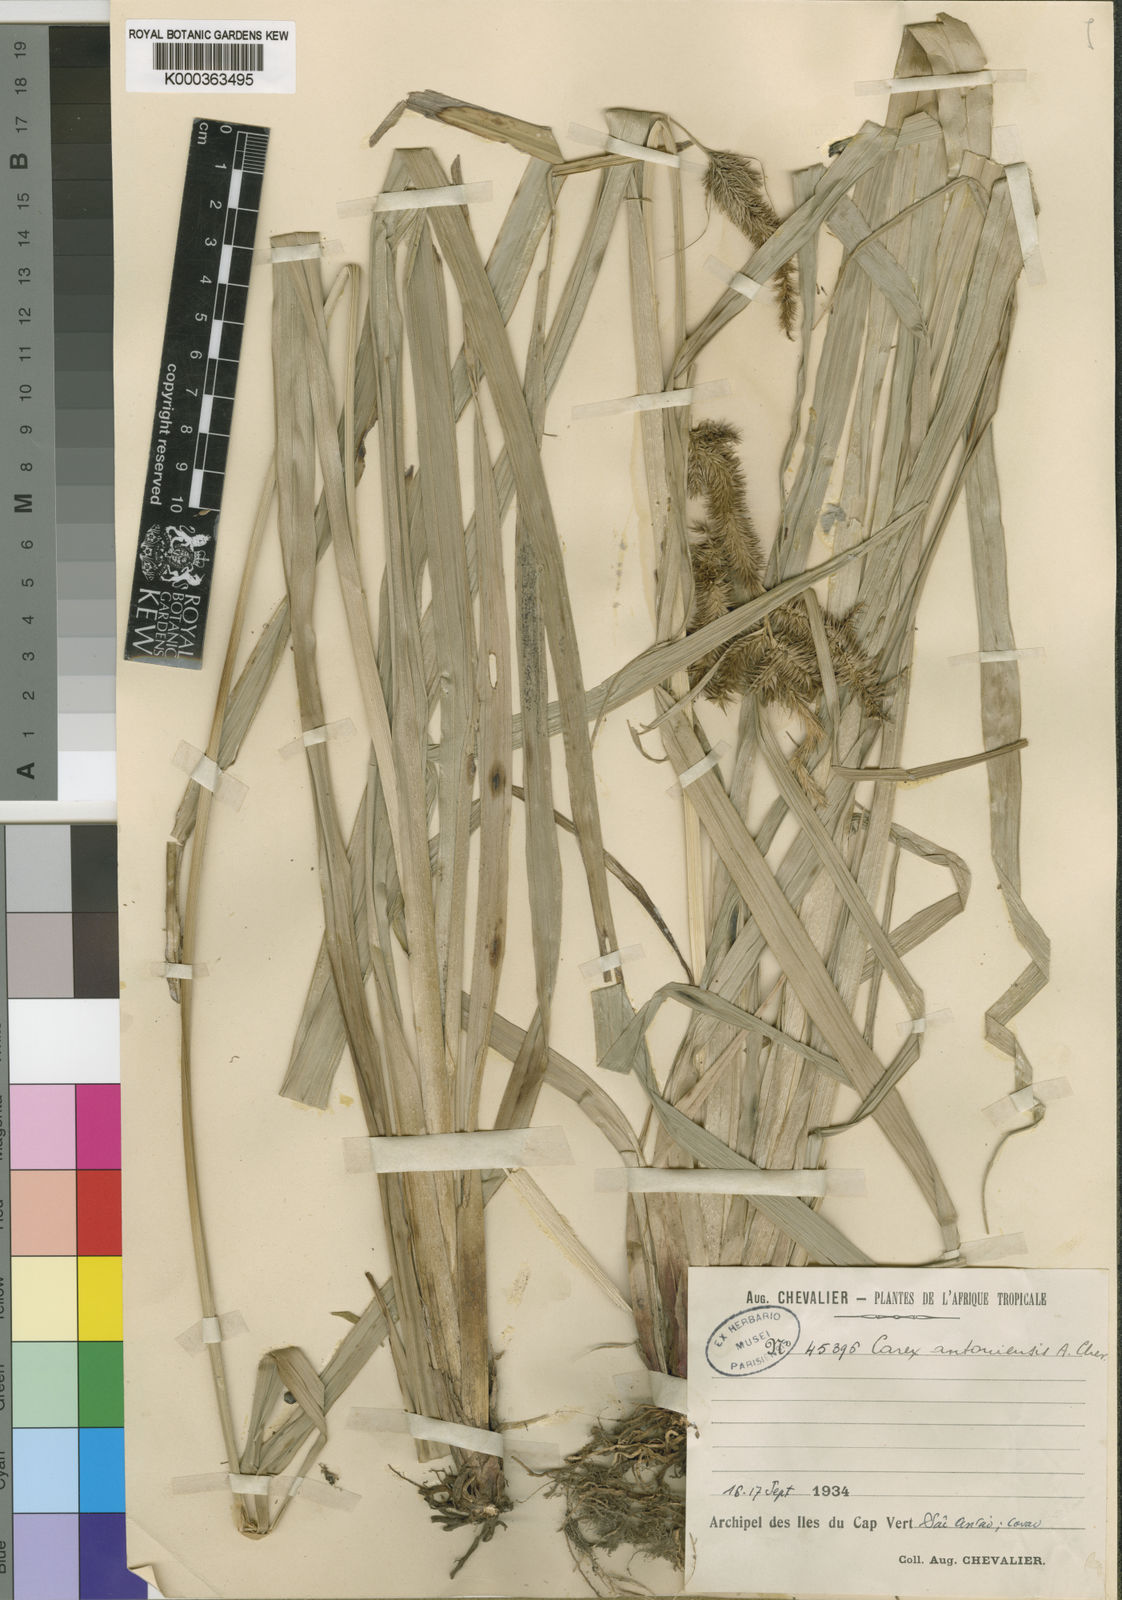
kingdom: Plantae
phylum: Tracheophyta
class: Liliopsida
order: Poales
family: Cyperaceae
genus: Carex
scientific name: Carex antoniensis
